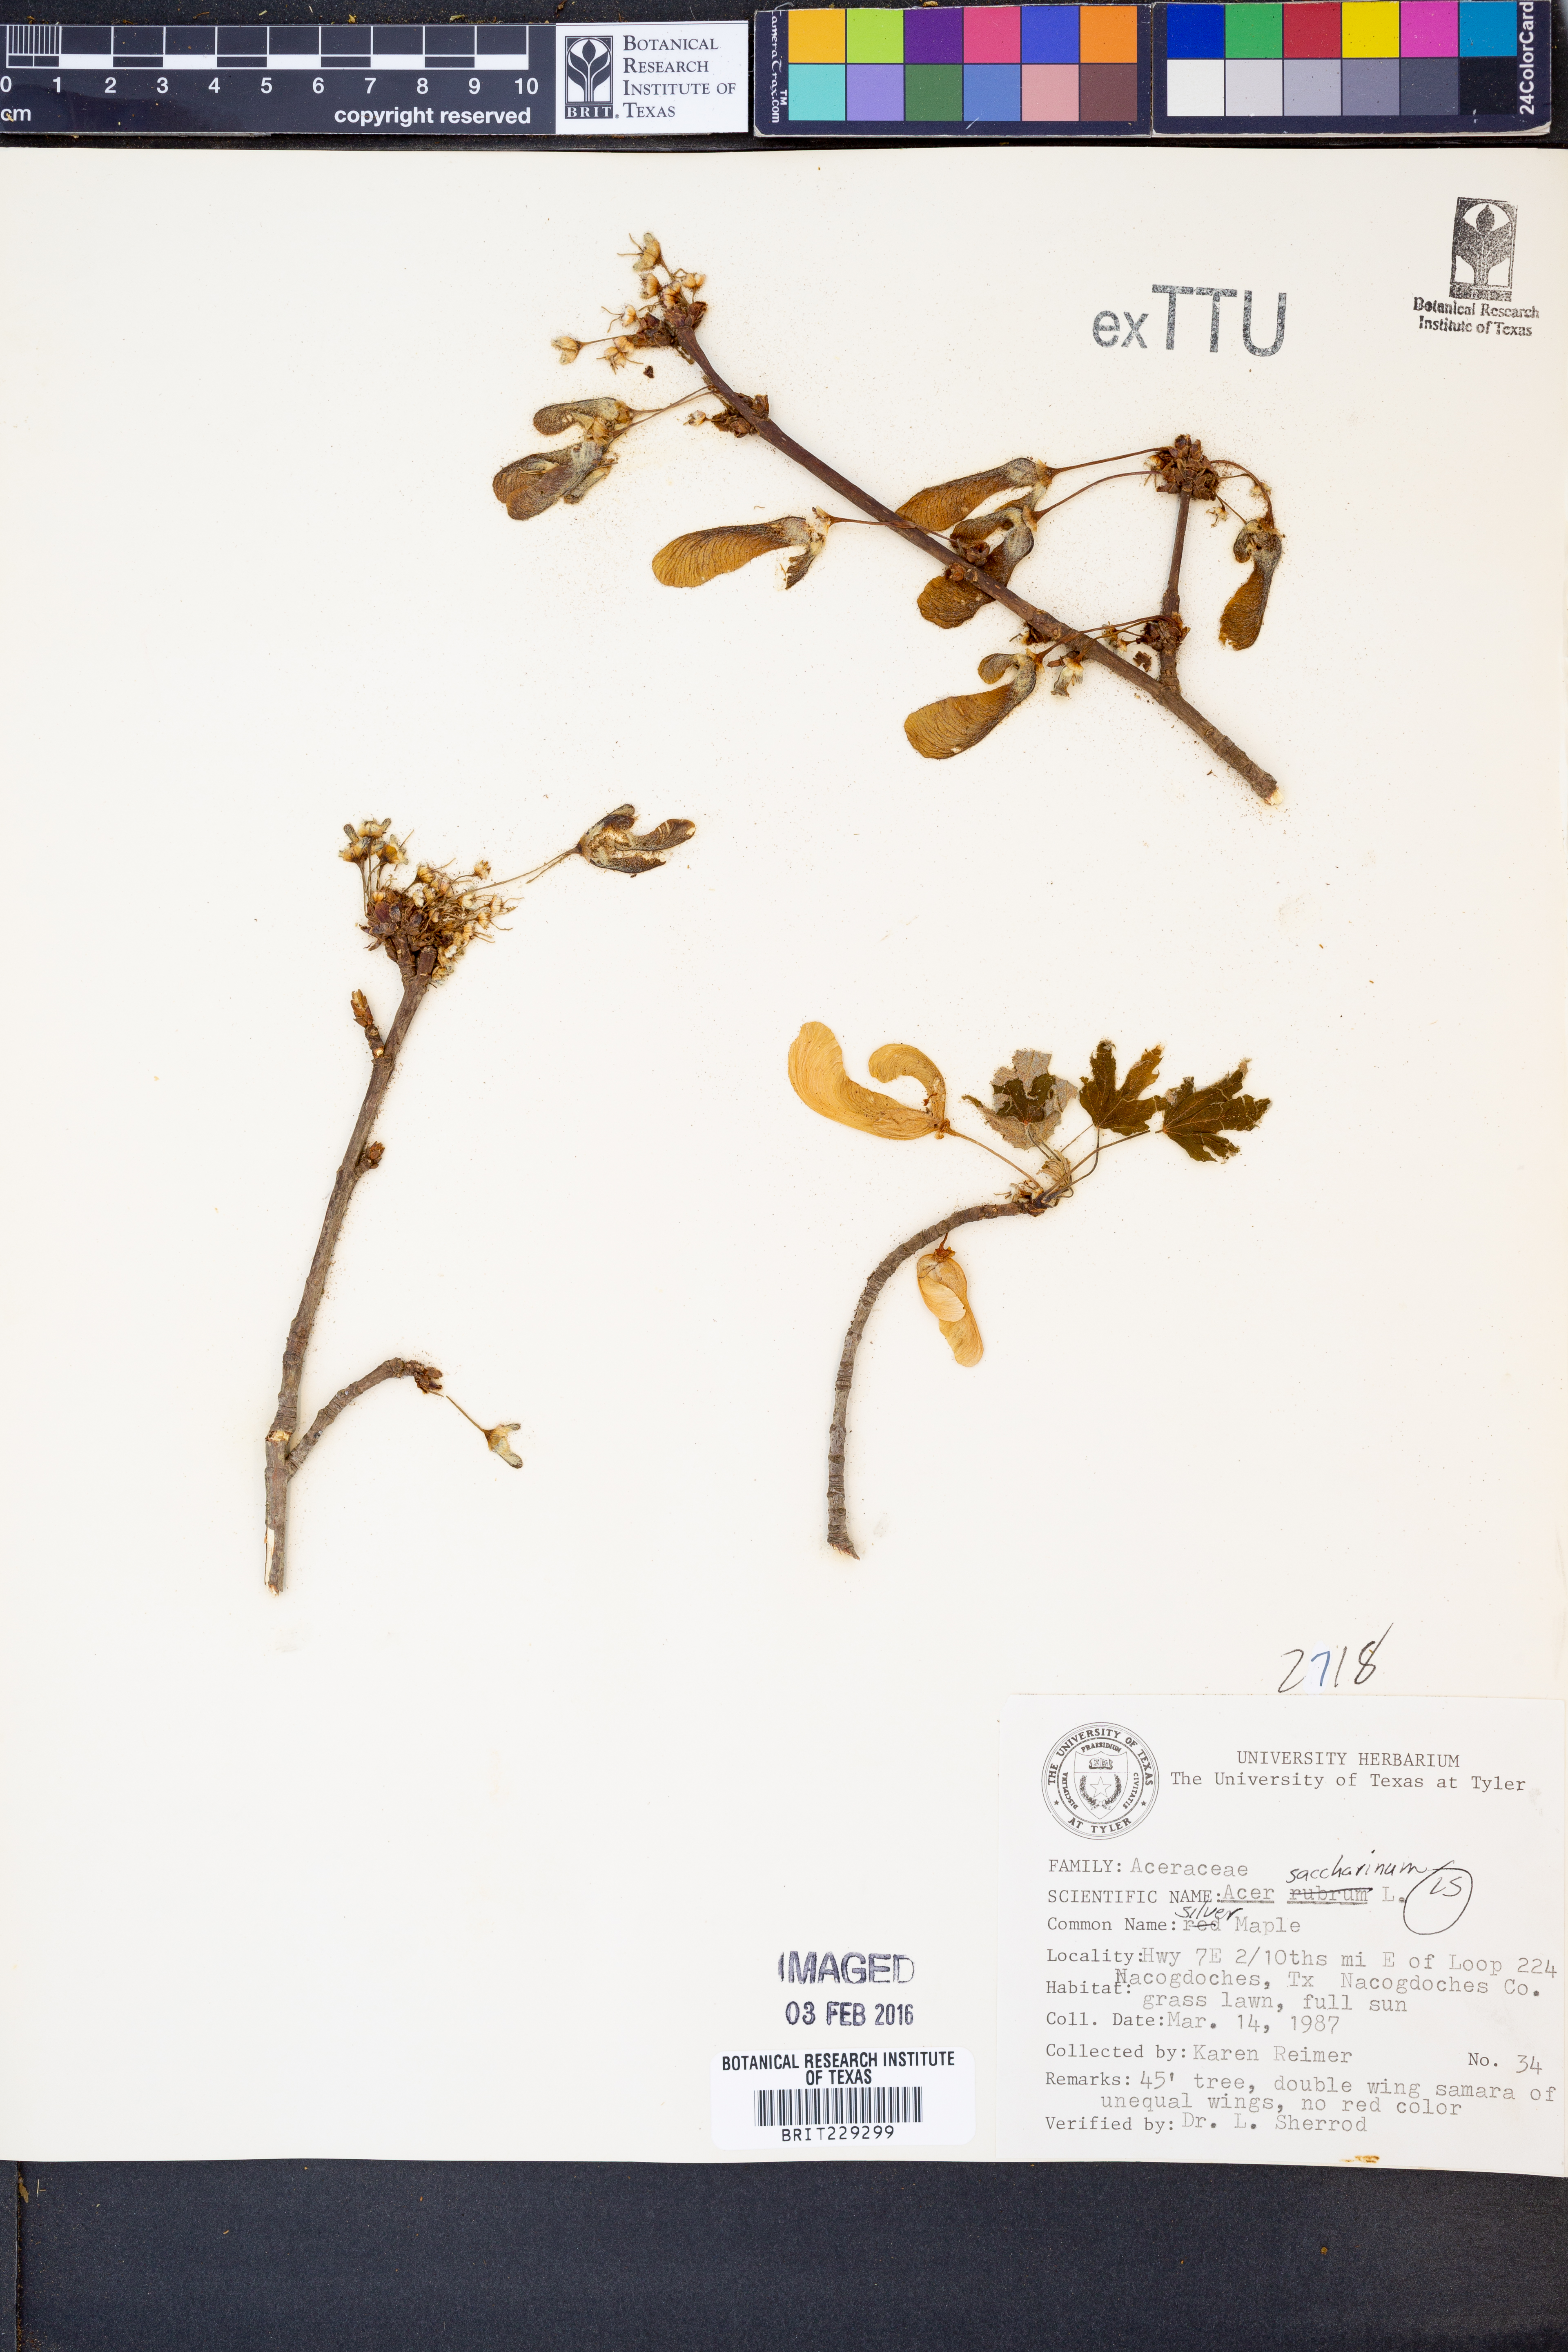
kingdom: Plantae
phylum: Tracheophyta
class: Magnoliopsida
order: Sapindales
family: Sapindaceae
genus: Acer
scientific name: Acer saccharinum
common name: Silver maple
